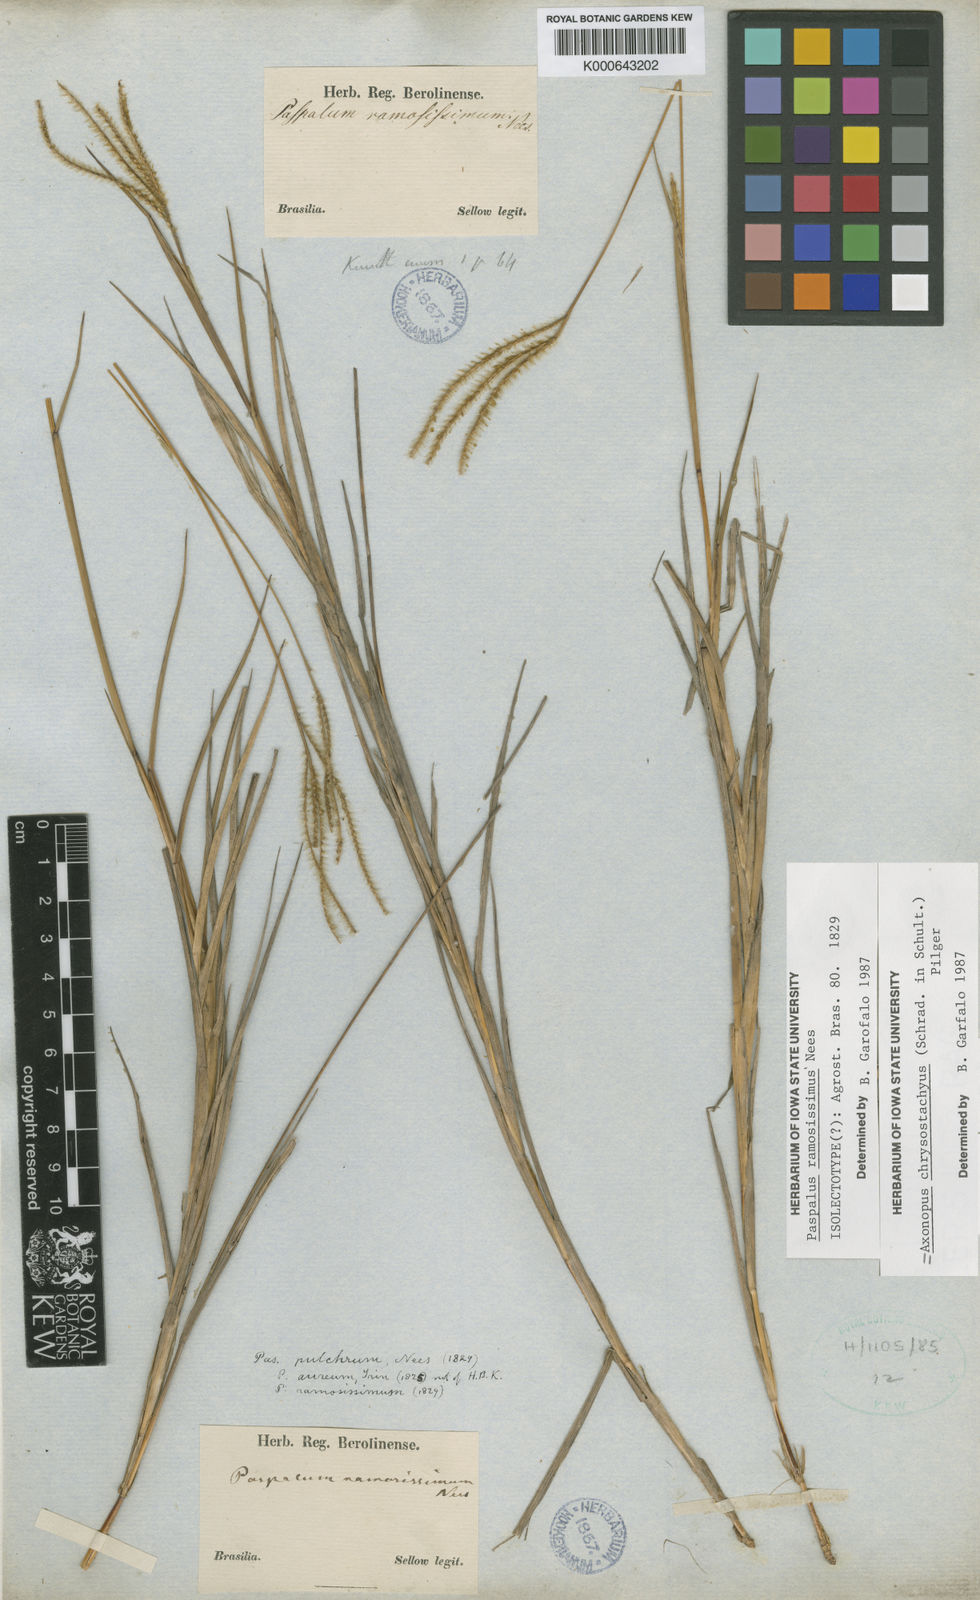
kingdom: Plantae
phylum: Tracheophyta
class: Liliopsida
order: Poales
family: Poaceae
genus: Axonopus
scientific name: Axonopus aureus
